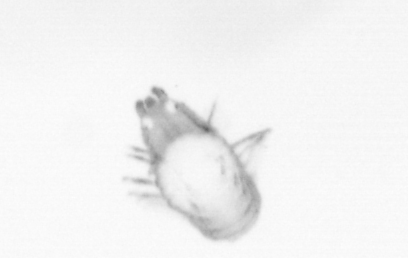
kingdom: Animalia
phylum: Annelida
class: Polychaeta
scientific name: Polychaeta
